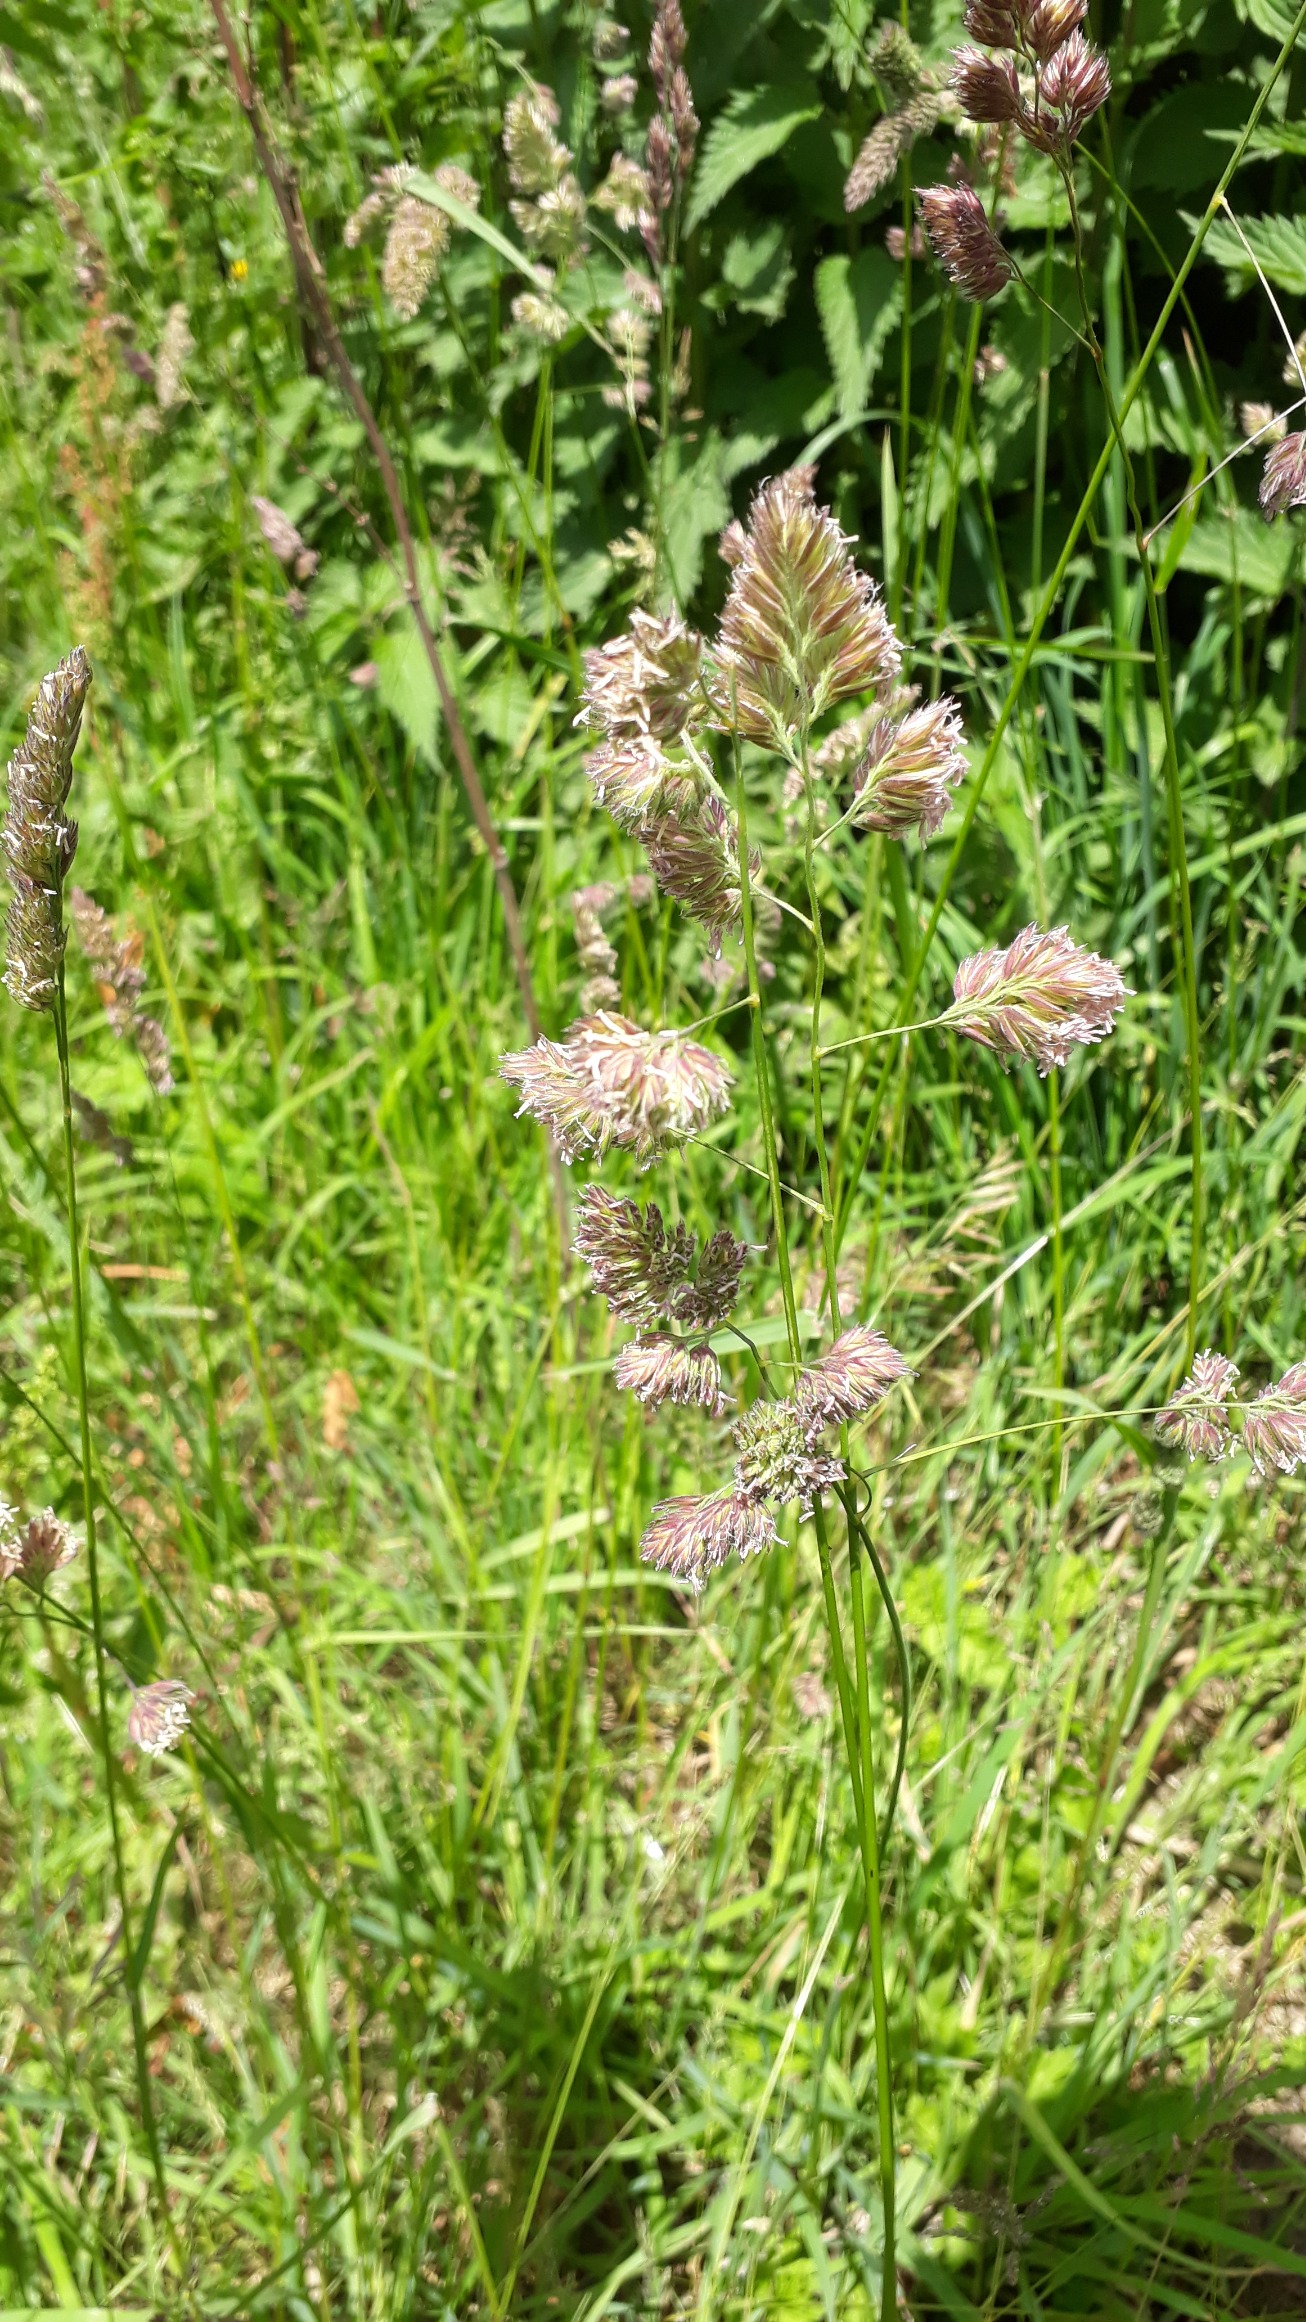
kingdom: Plantae
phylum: Tracheophyta
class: Liliopsida
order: Poales
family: Poaceae
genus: Dactylis
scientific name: Dactylis glomerata
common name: Almindelig hundegræs
